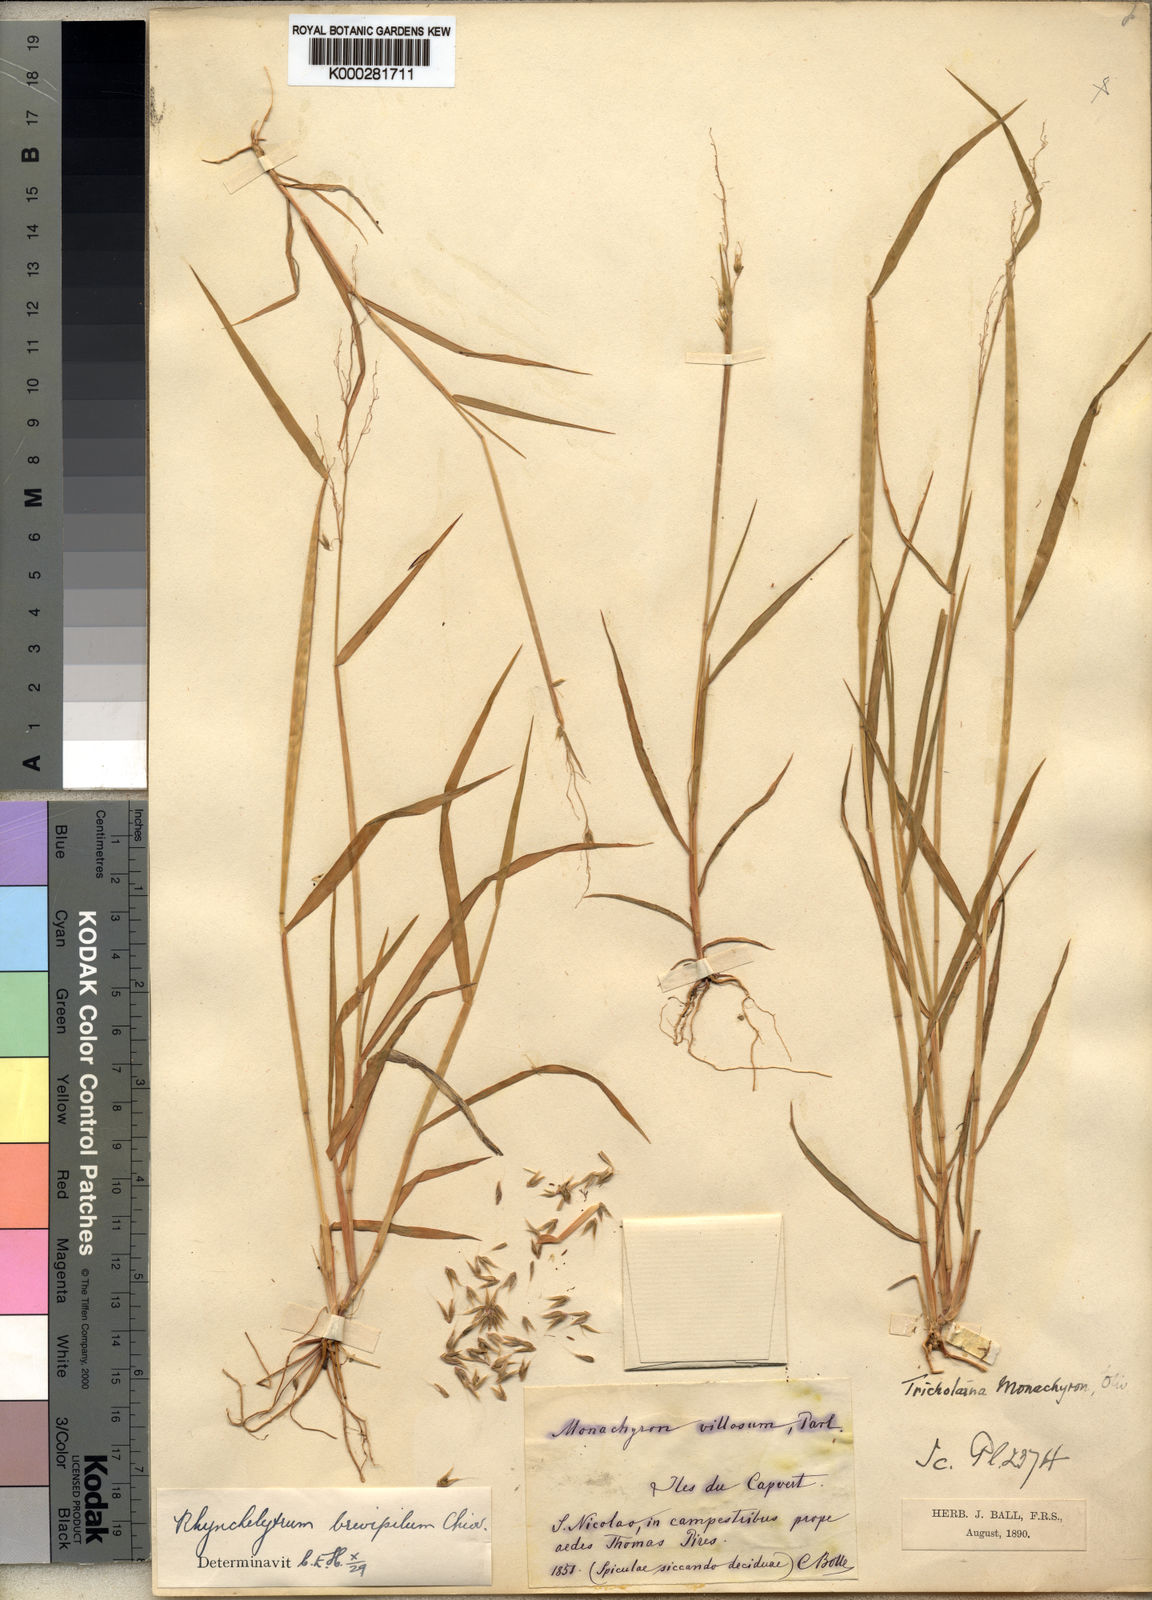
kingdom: Plantae
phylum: Tracheophyta
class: Liliopsida
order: Poales
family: Poaceae
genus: Melinis
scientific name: Melinis repens
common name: Rose natal grass
